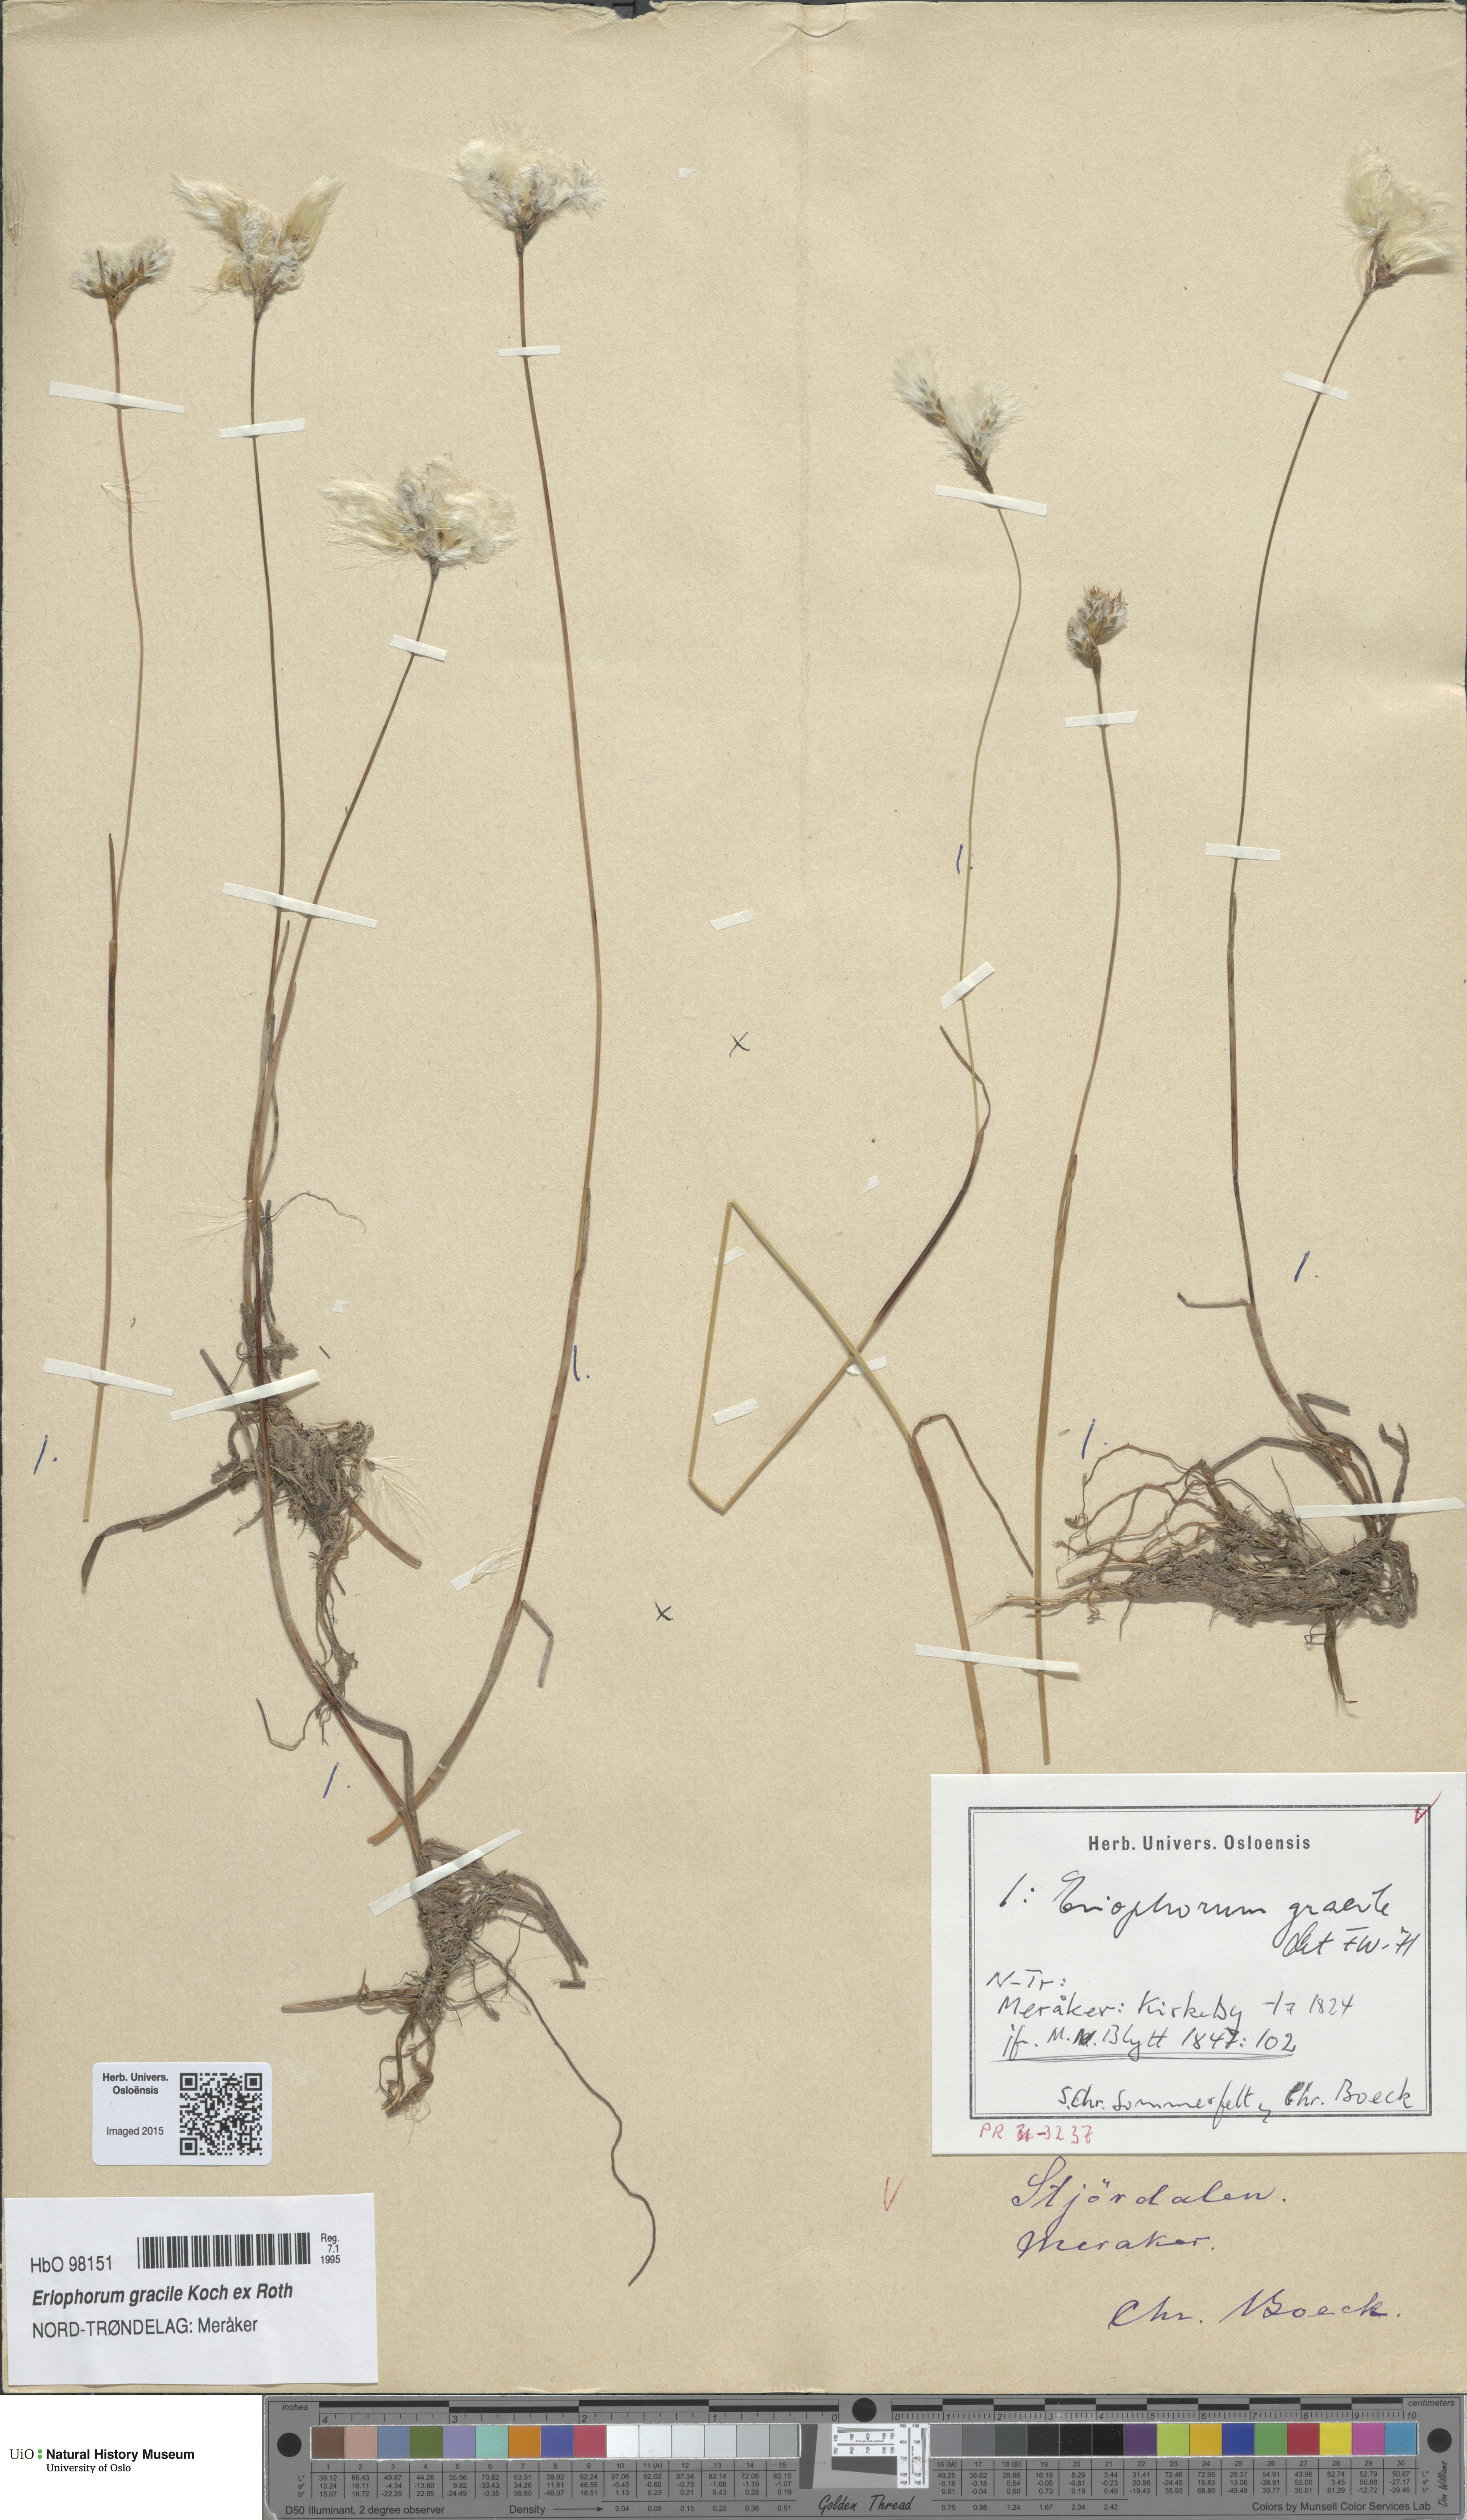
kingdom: Plantae
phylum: Tracheophyta
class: Liliopsida
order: Poales
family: Cyperaceae
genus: Eriophorum
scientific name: Eriophorum gracile
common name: Slender cottongrass
